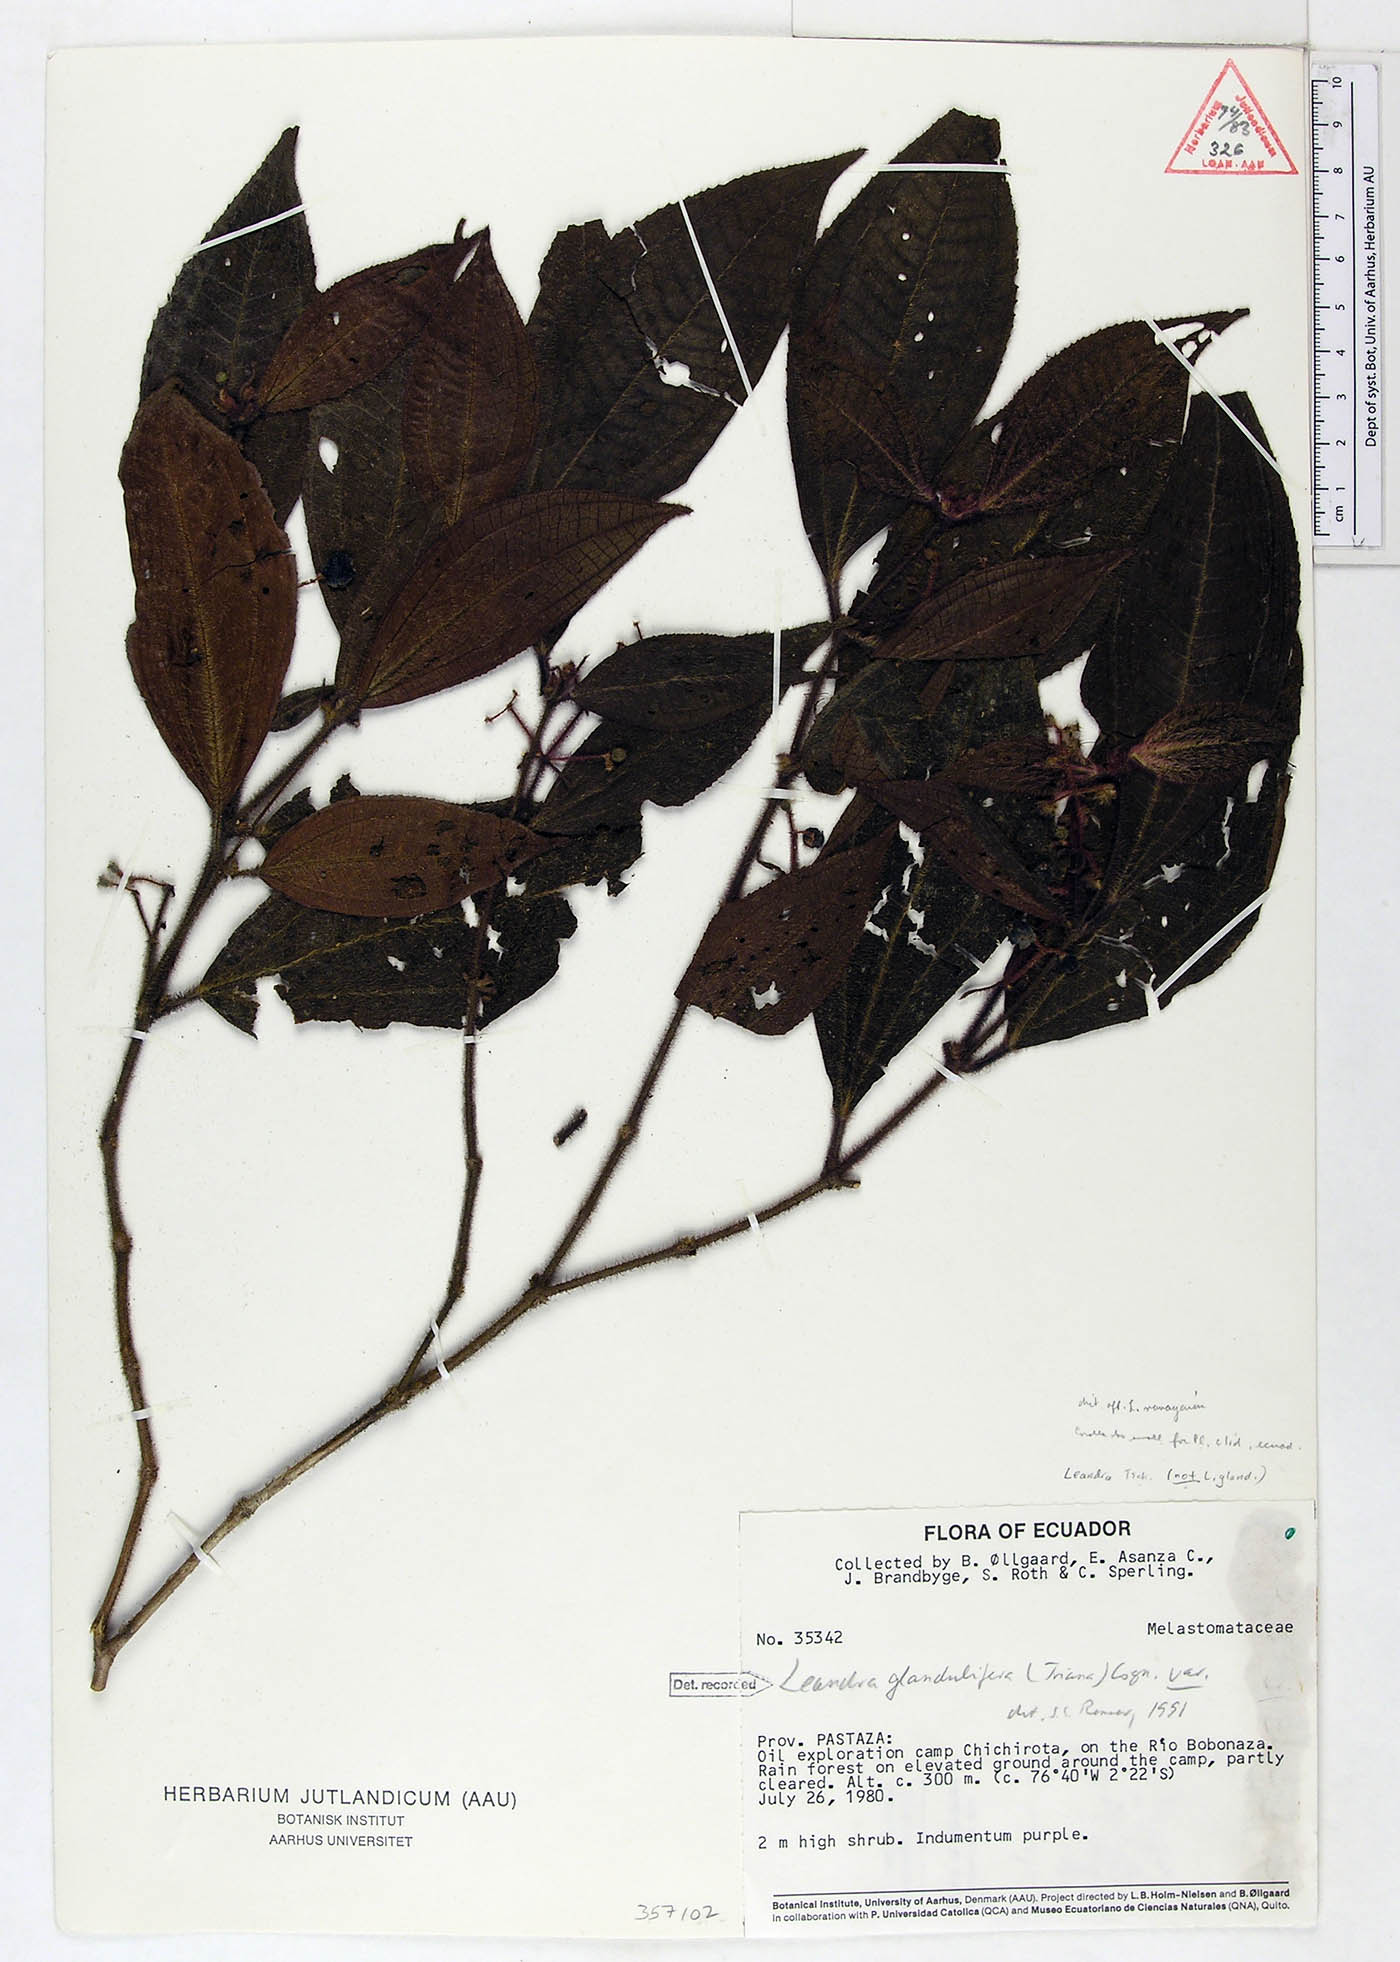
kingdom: Plantae
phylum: Tracheophyta
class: Magnoliopsida
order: Myrtales
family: Melastomataceae
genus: Miconia
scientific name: Miconia glanduliflora
